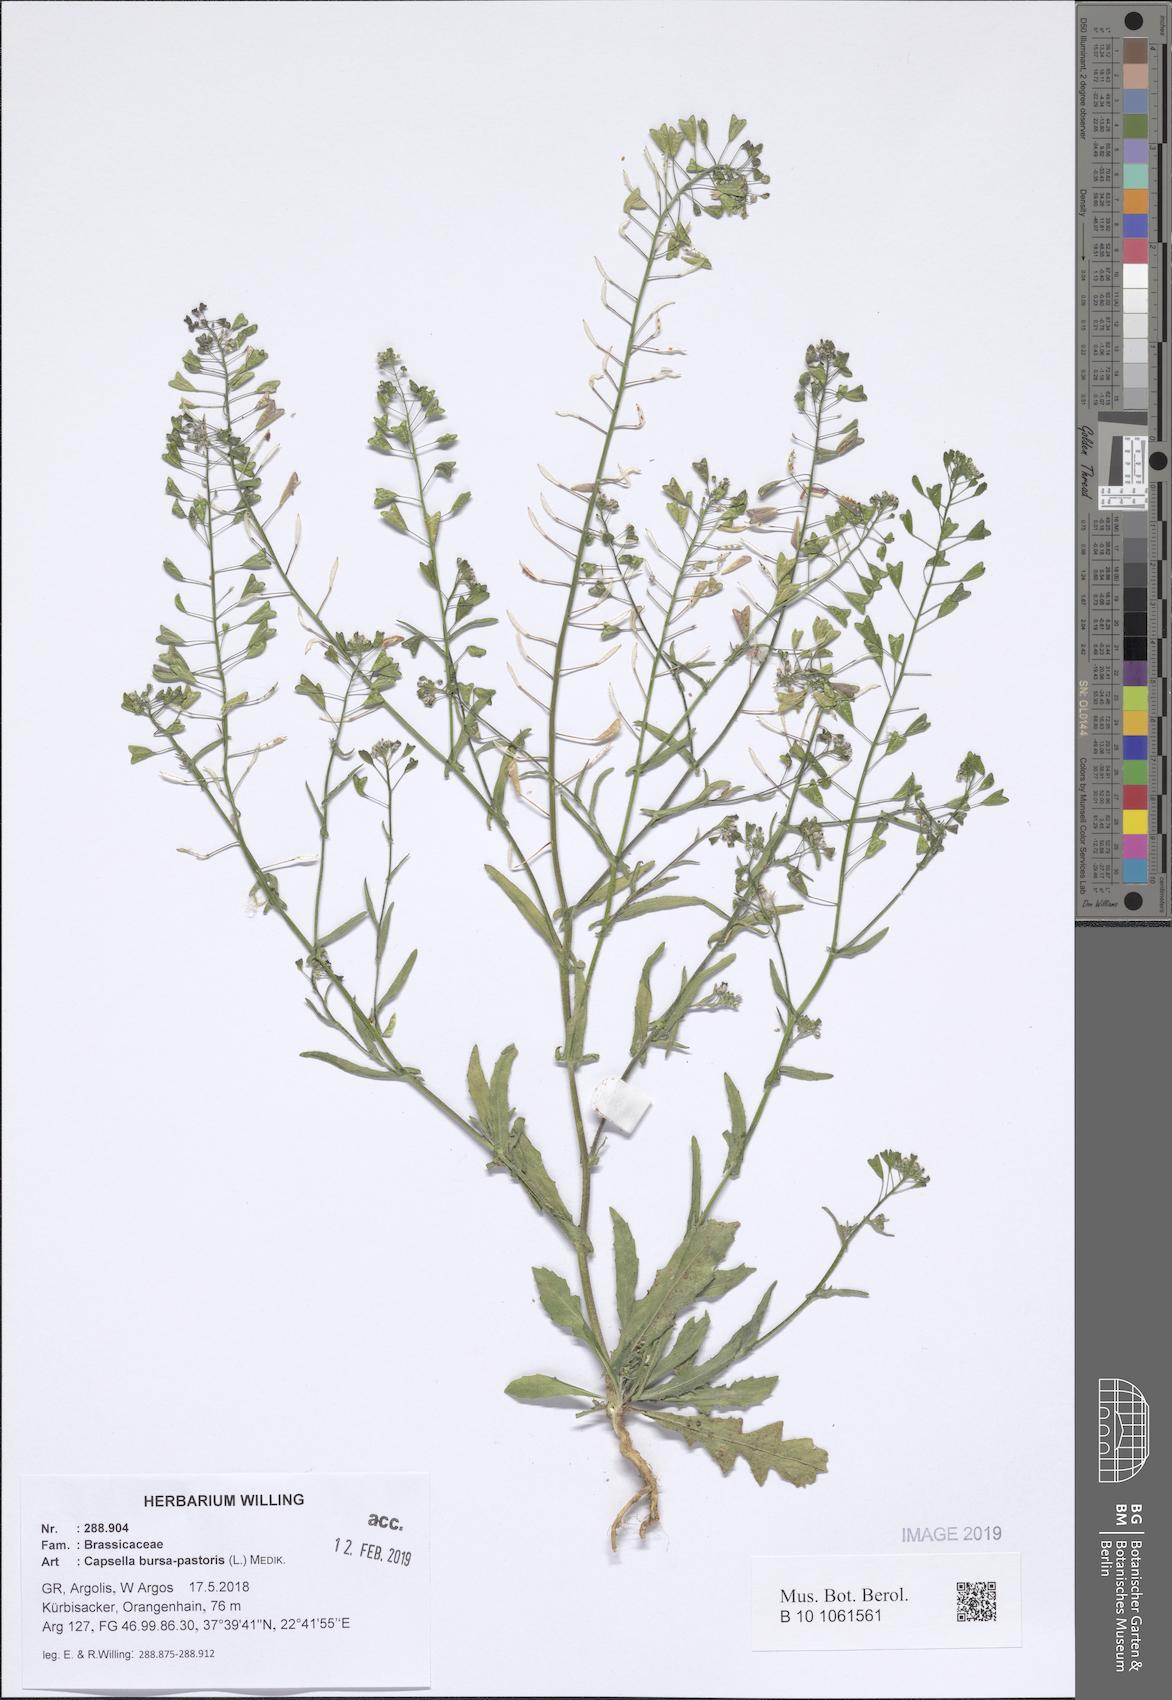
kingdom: Plantae
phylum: Tracheophyta
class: Magnoliopsida
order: Brassicales
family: Brassicaceae
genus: Capsella
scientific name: Capsella bursa-pastoris
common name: Shepherd's purse
